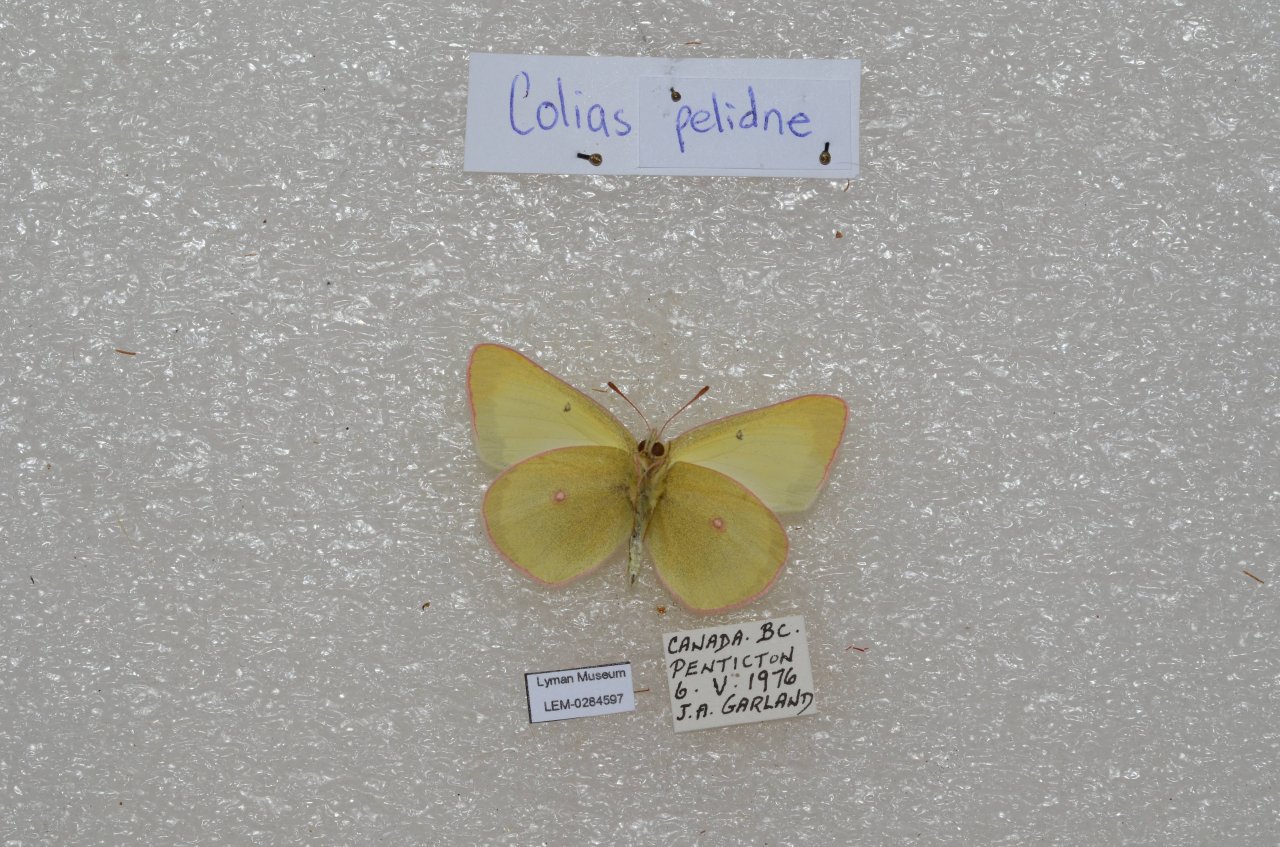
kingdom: Animalia
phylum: Arthropoda
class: Insecta
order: Lepidoptera
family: Pieridae
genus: Colias
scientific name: Colias pelidne
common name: Pelidne Sulphur
